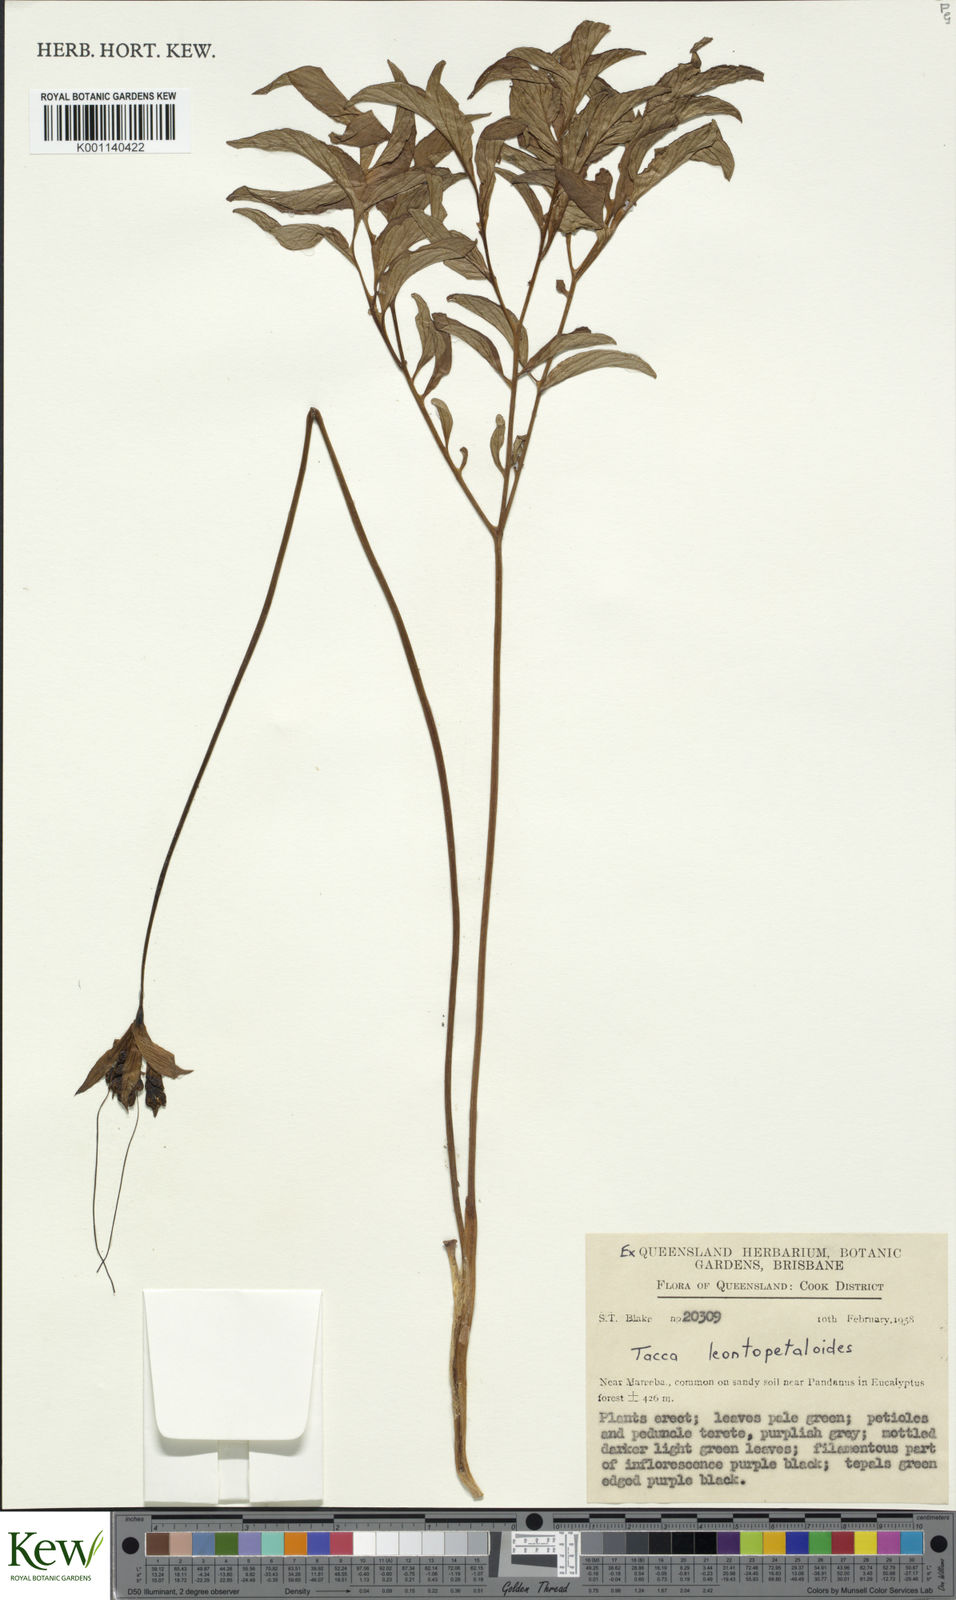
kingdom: Plantae
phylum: Tracheophyta
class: Liliopsida
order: Dioscoreales
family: Dioscoreaceae
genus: Tacca
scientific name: Tacca leontopetaloides
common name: Arrowroot
